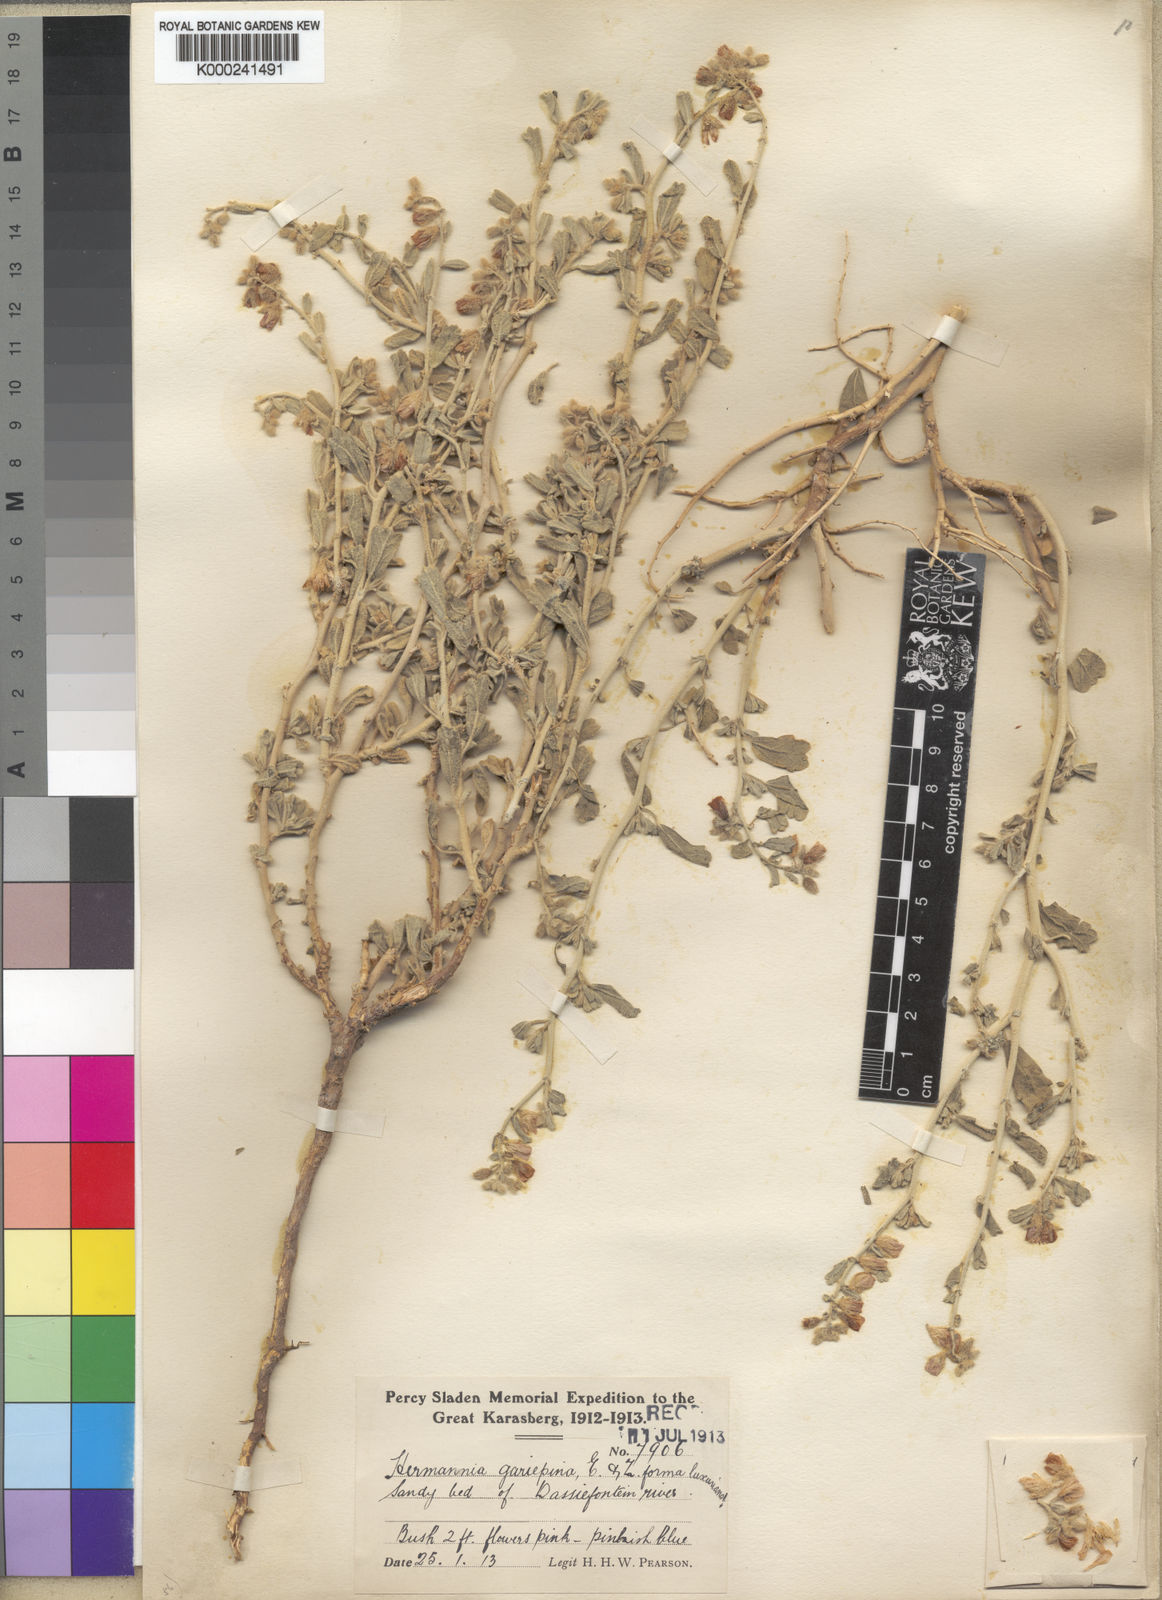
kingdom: Plantae
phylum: Tracheophyta
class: Magnoliopsida
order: Malvales
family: Malvaceae
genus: Hermannia
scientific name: Hermannia gariepina
